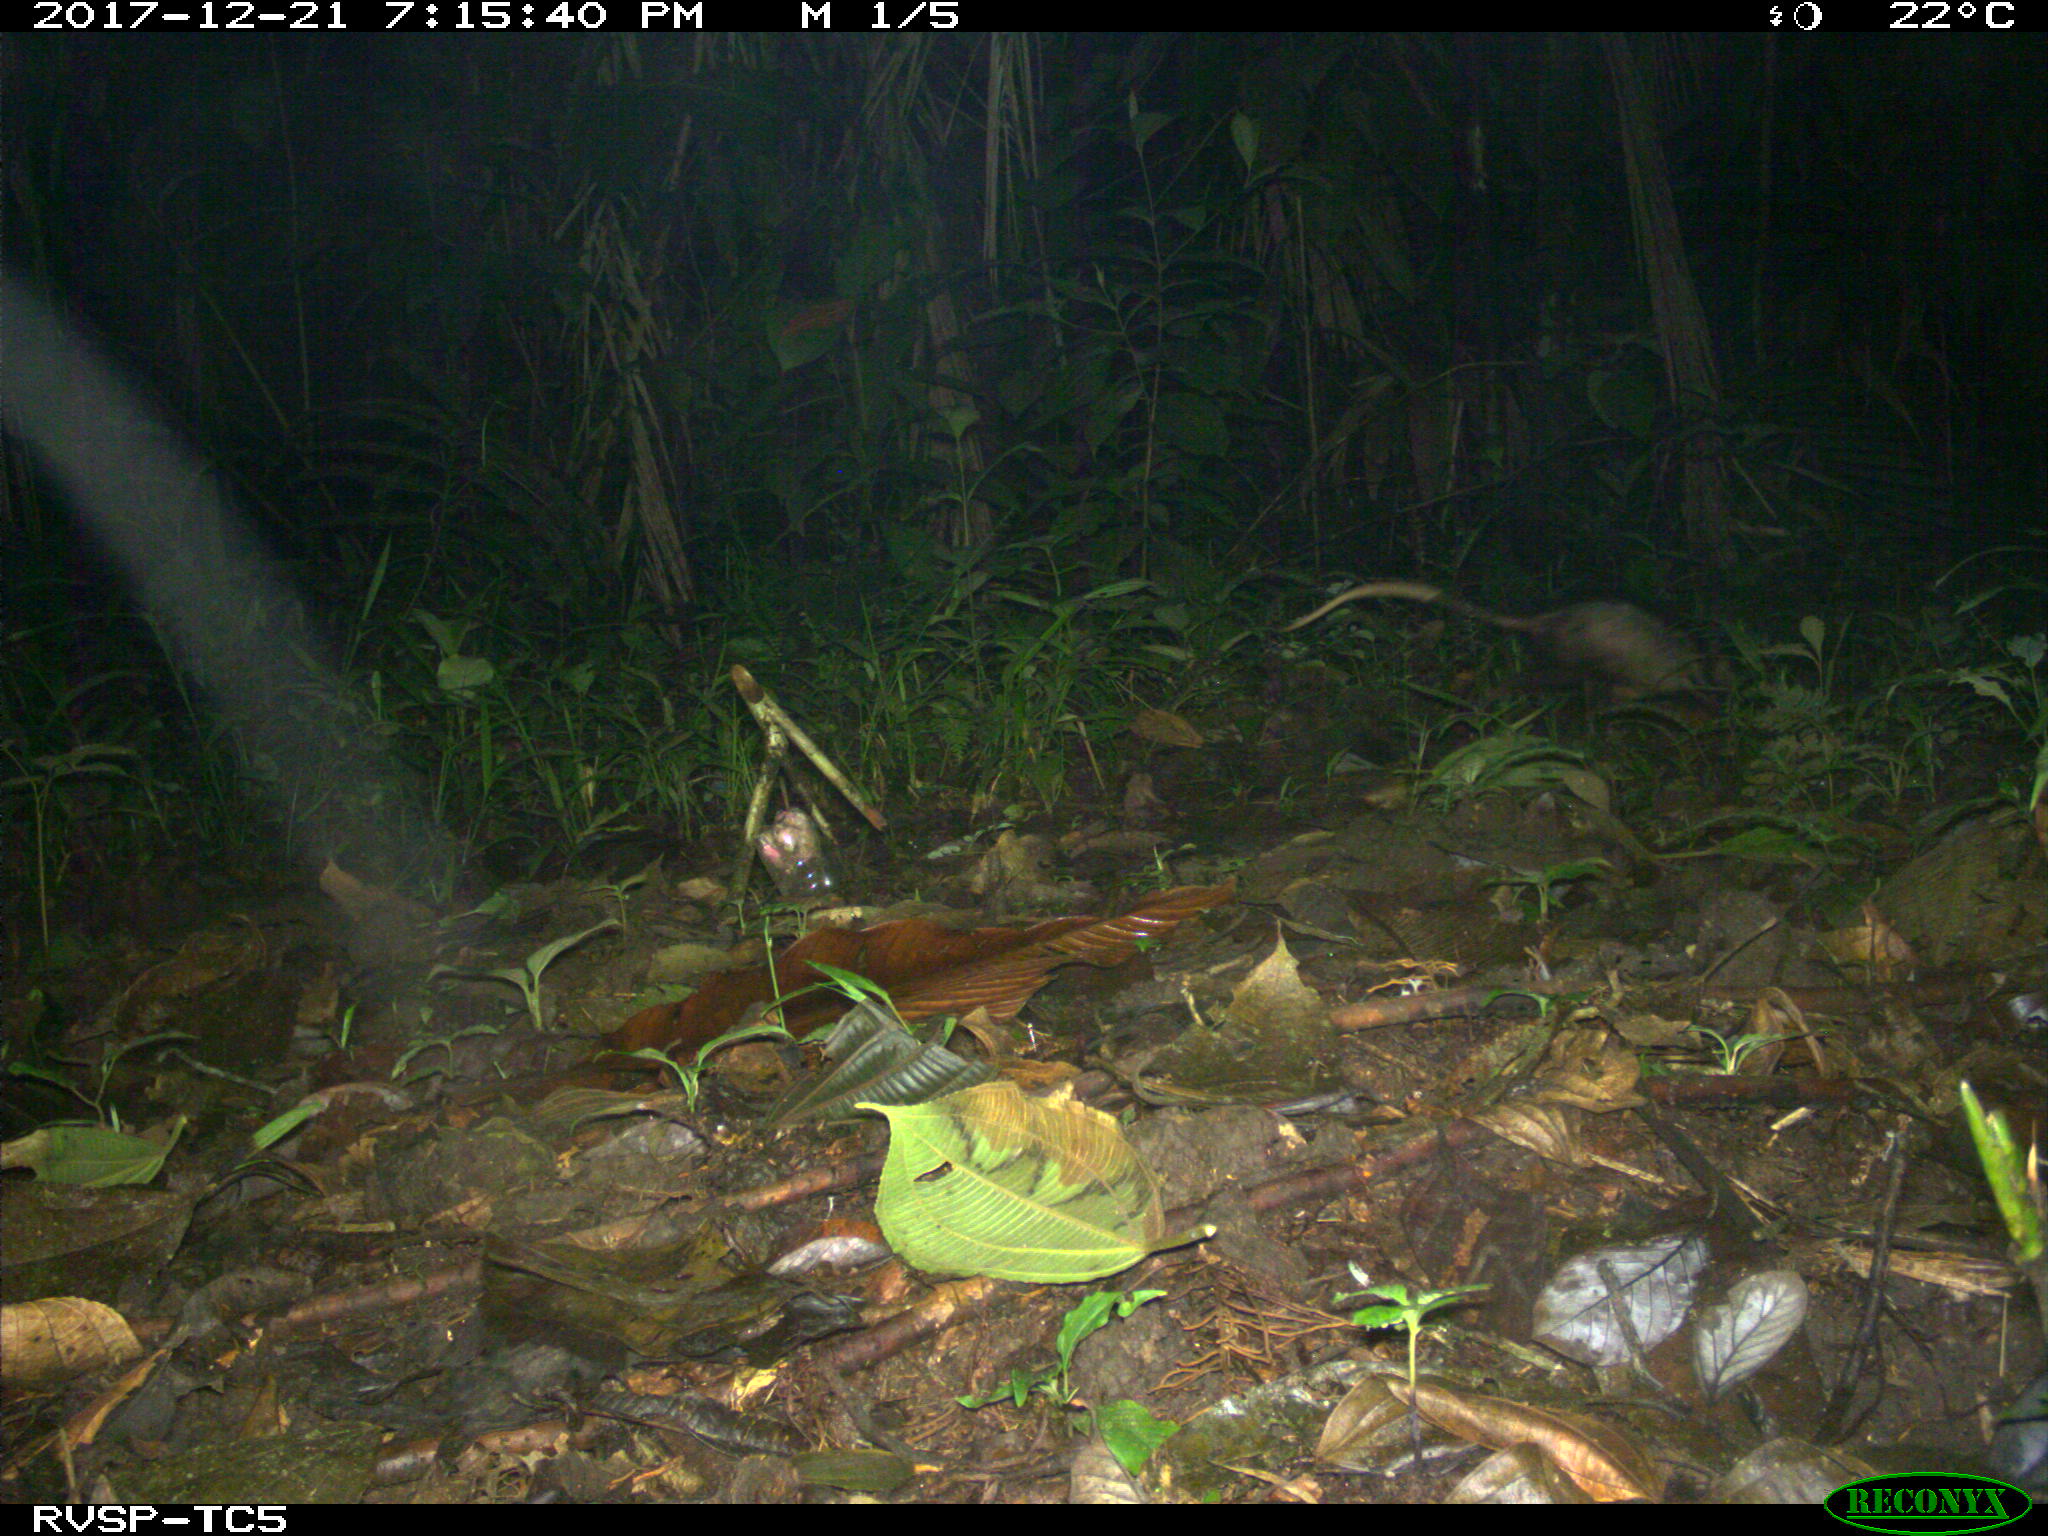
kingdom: Animalia
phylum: Chordata
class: Mammalia
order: Didelphimorphia
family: Didelphidae
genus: Didelphis
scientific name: Didelphis marsupialis
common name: Common opossum
